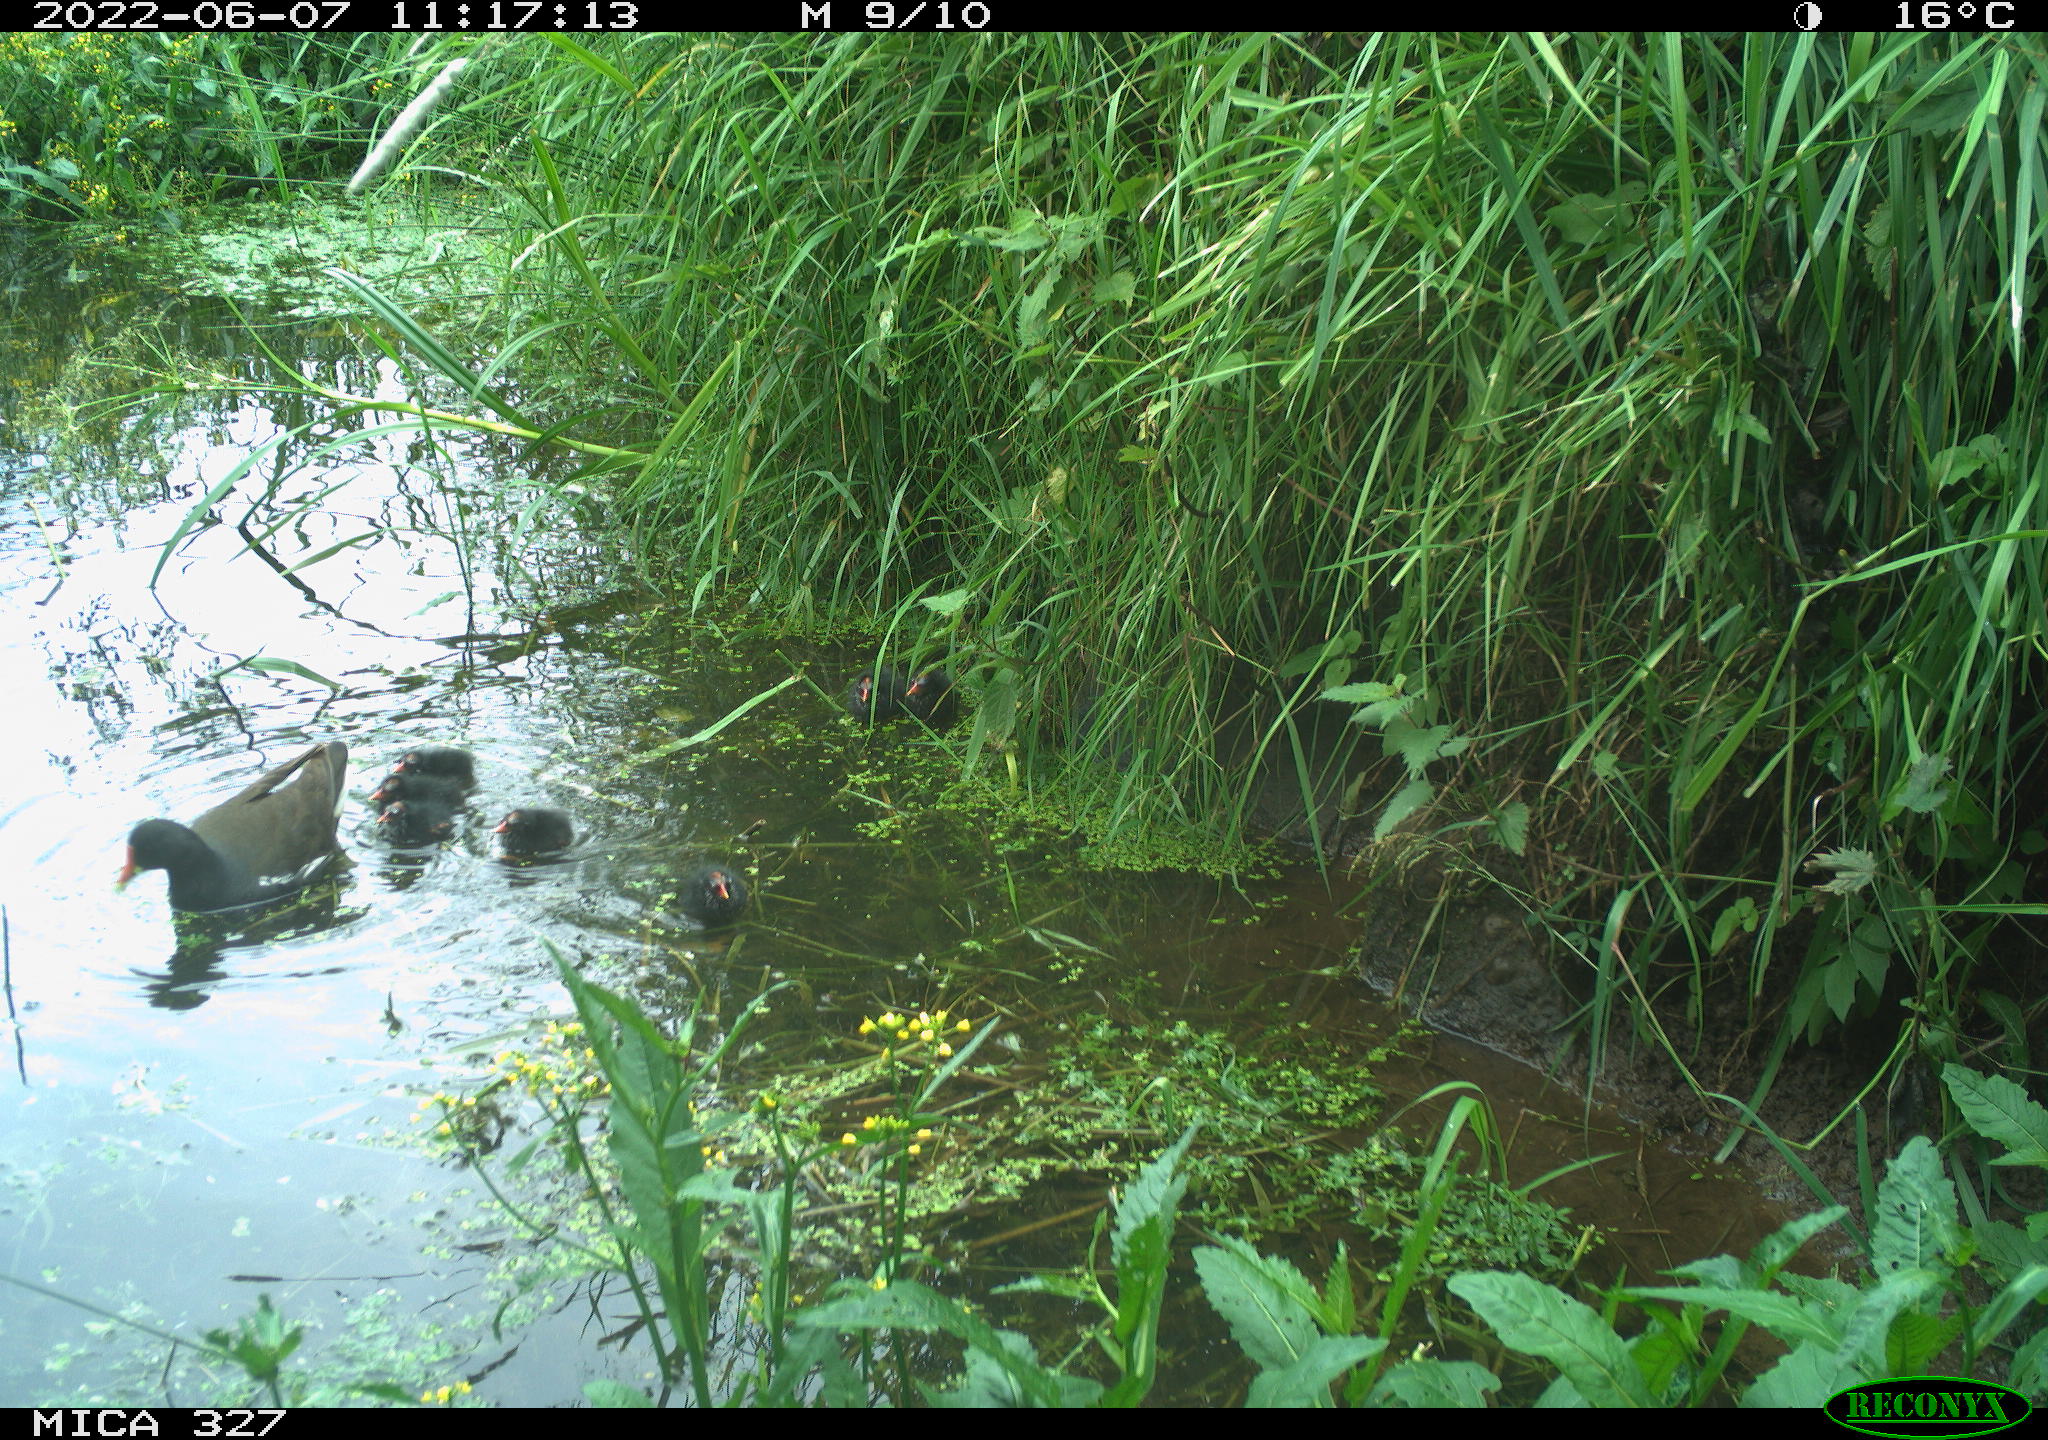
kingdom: Animalia
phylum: Chordata
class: Aves
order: Gruiformes
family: Rallidae
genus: Gallinula
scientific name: Gallinula chloropus
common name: Common moorhen
